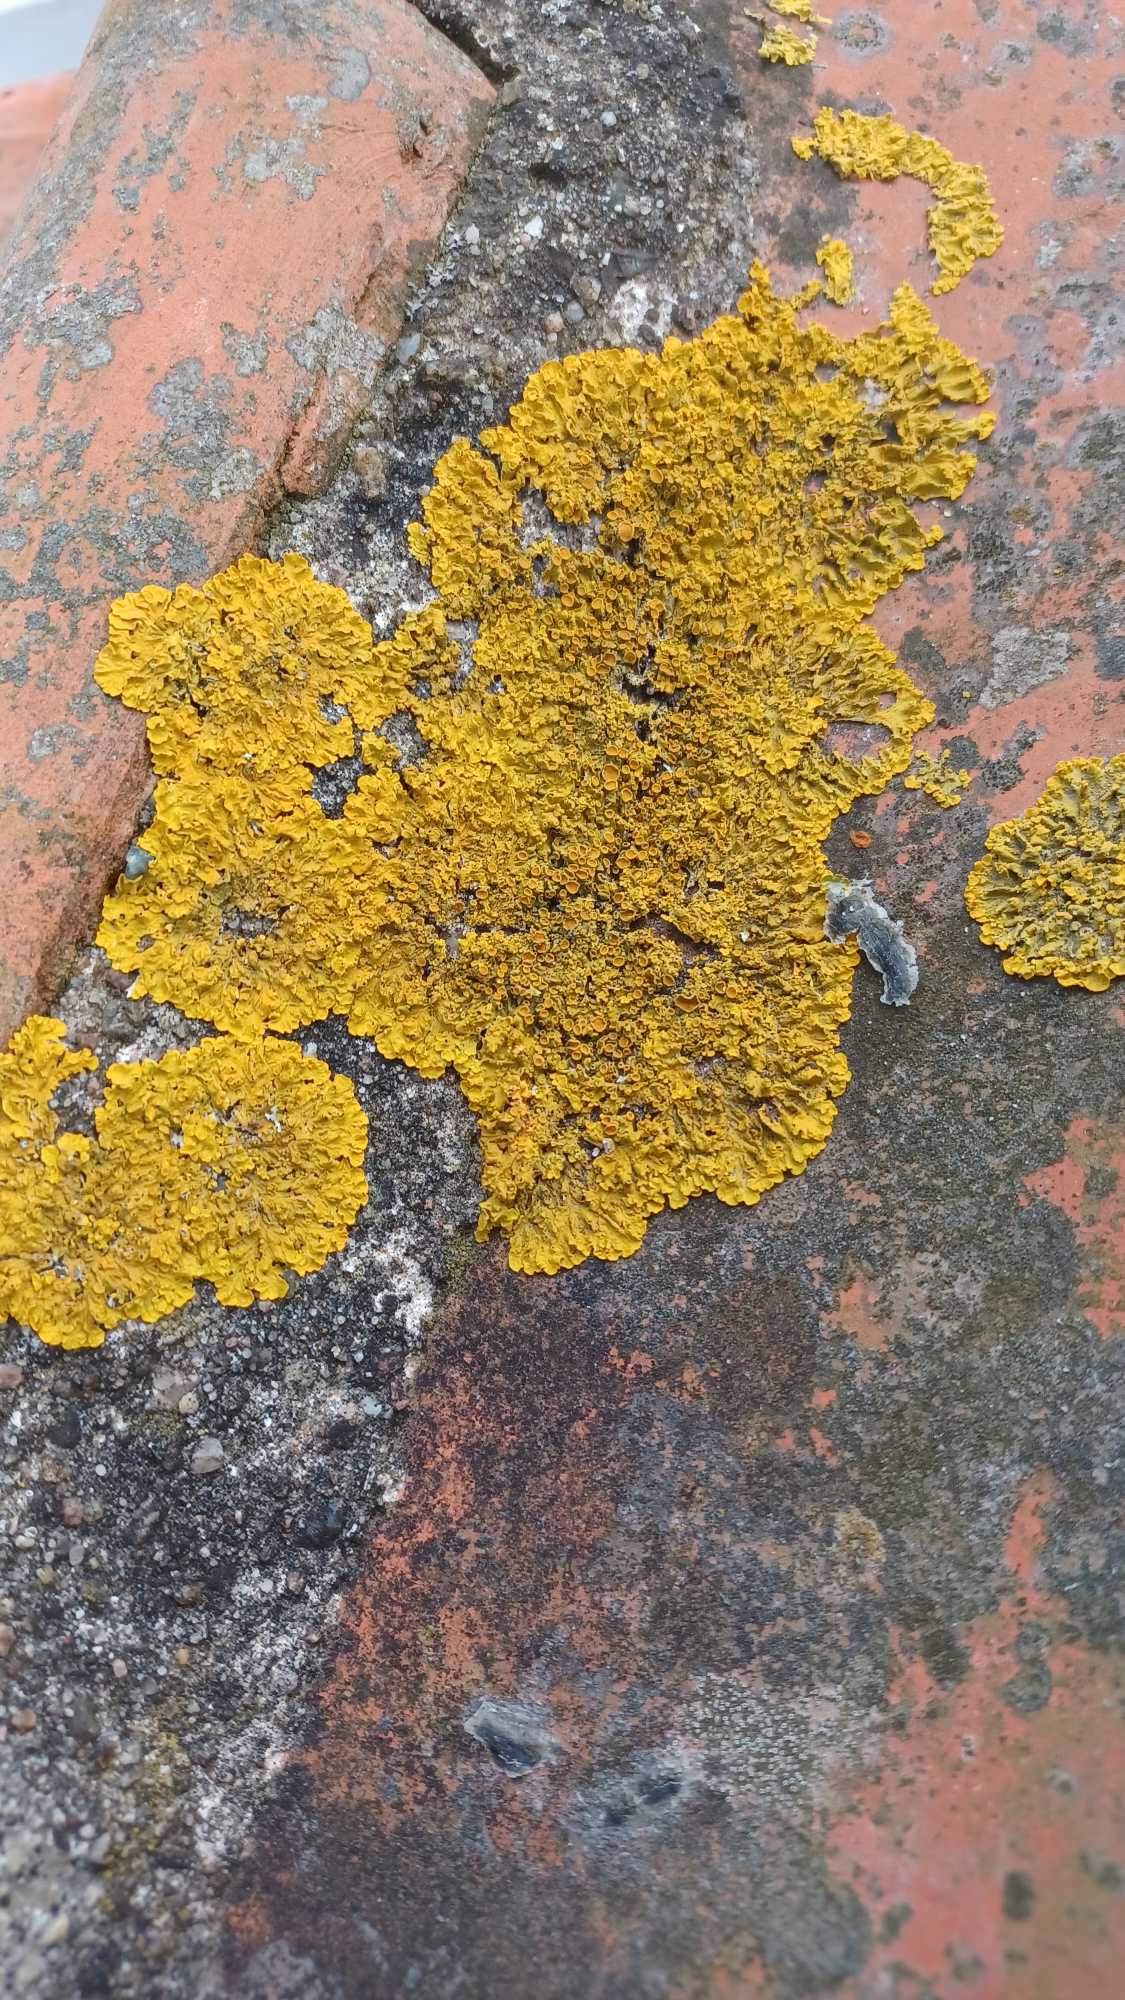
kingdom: Fungi
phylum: Ascomycota
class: Lecanoromycetes
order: Teloschistales
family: Teloschistaceae
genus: Xanthoria
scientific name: Xanthoria parietina
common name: Almindelig væggelav
